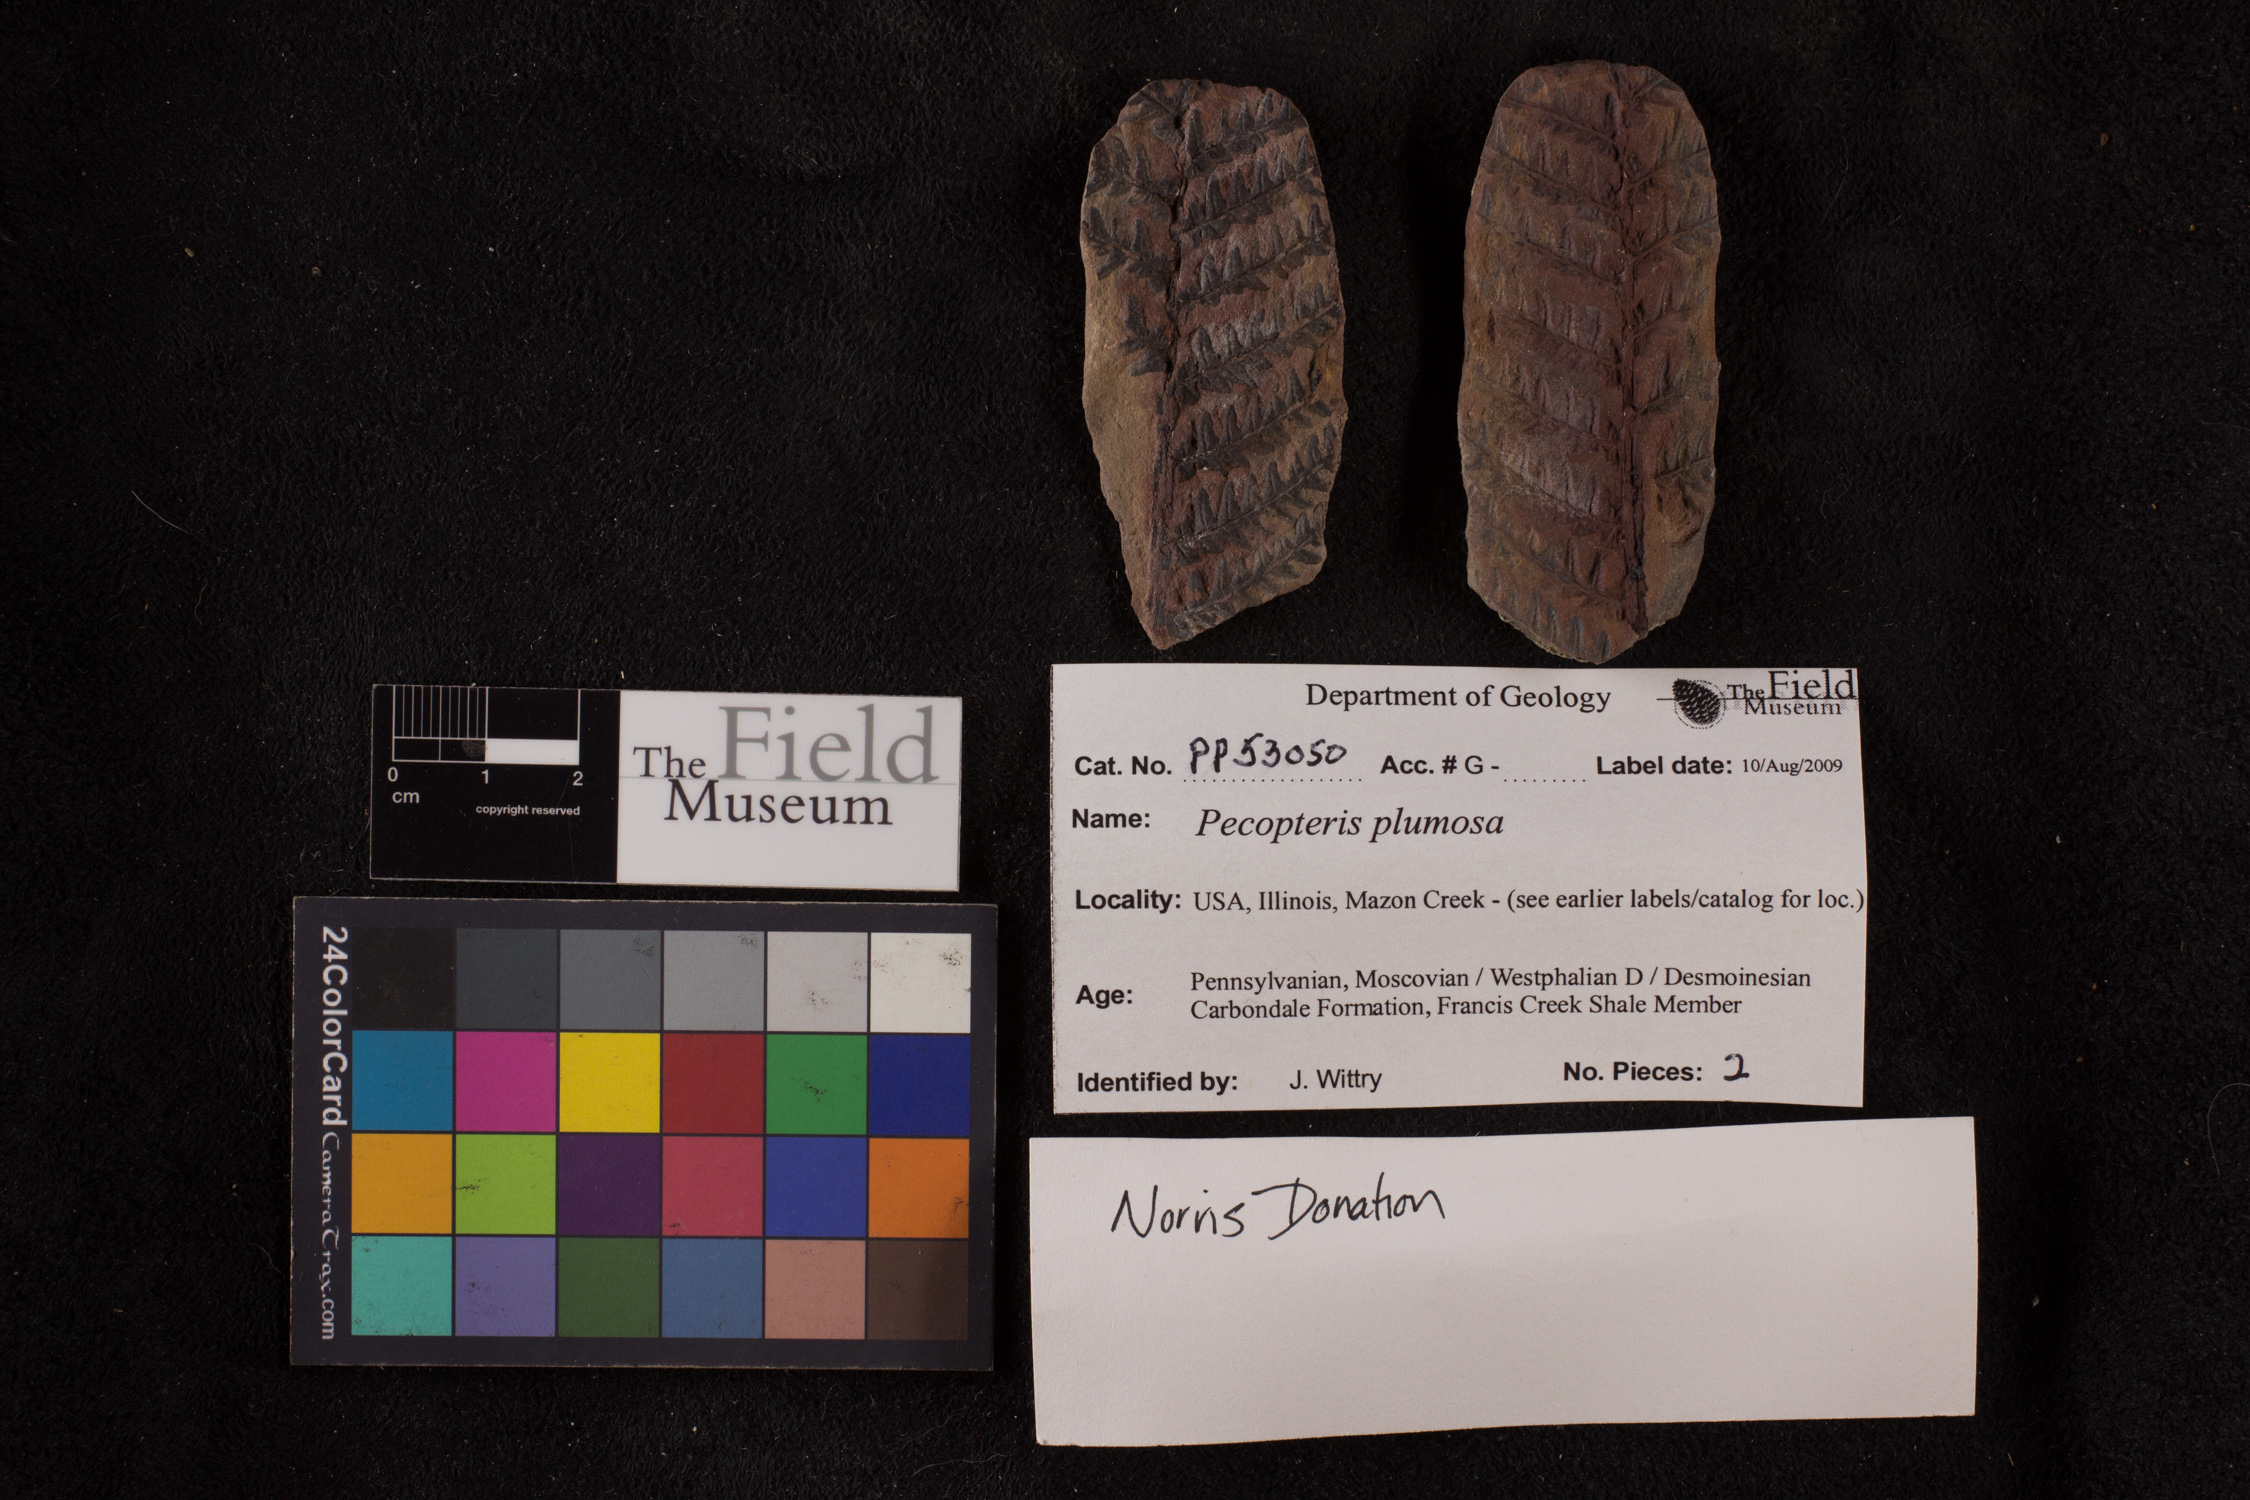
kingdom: Plantae
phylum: Tracheophyta
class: Polypodiopsida
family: Tedeleaceae
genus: Senftenbergia
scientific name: Senftenbergia
